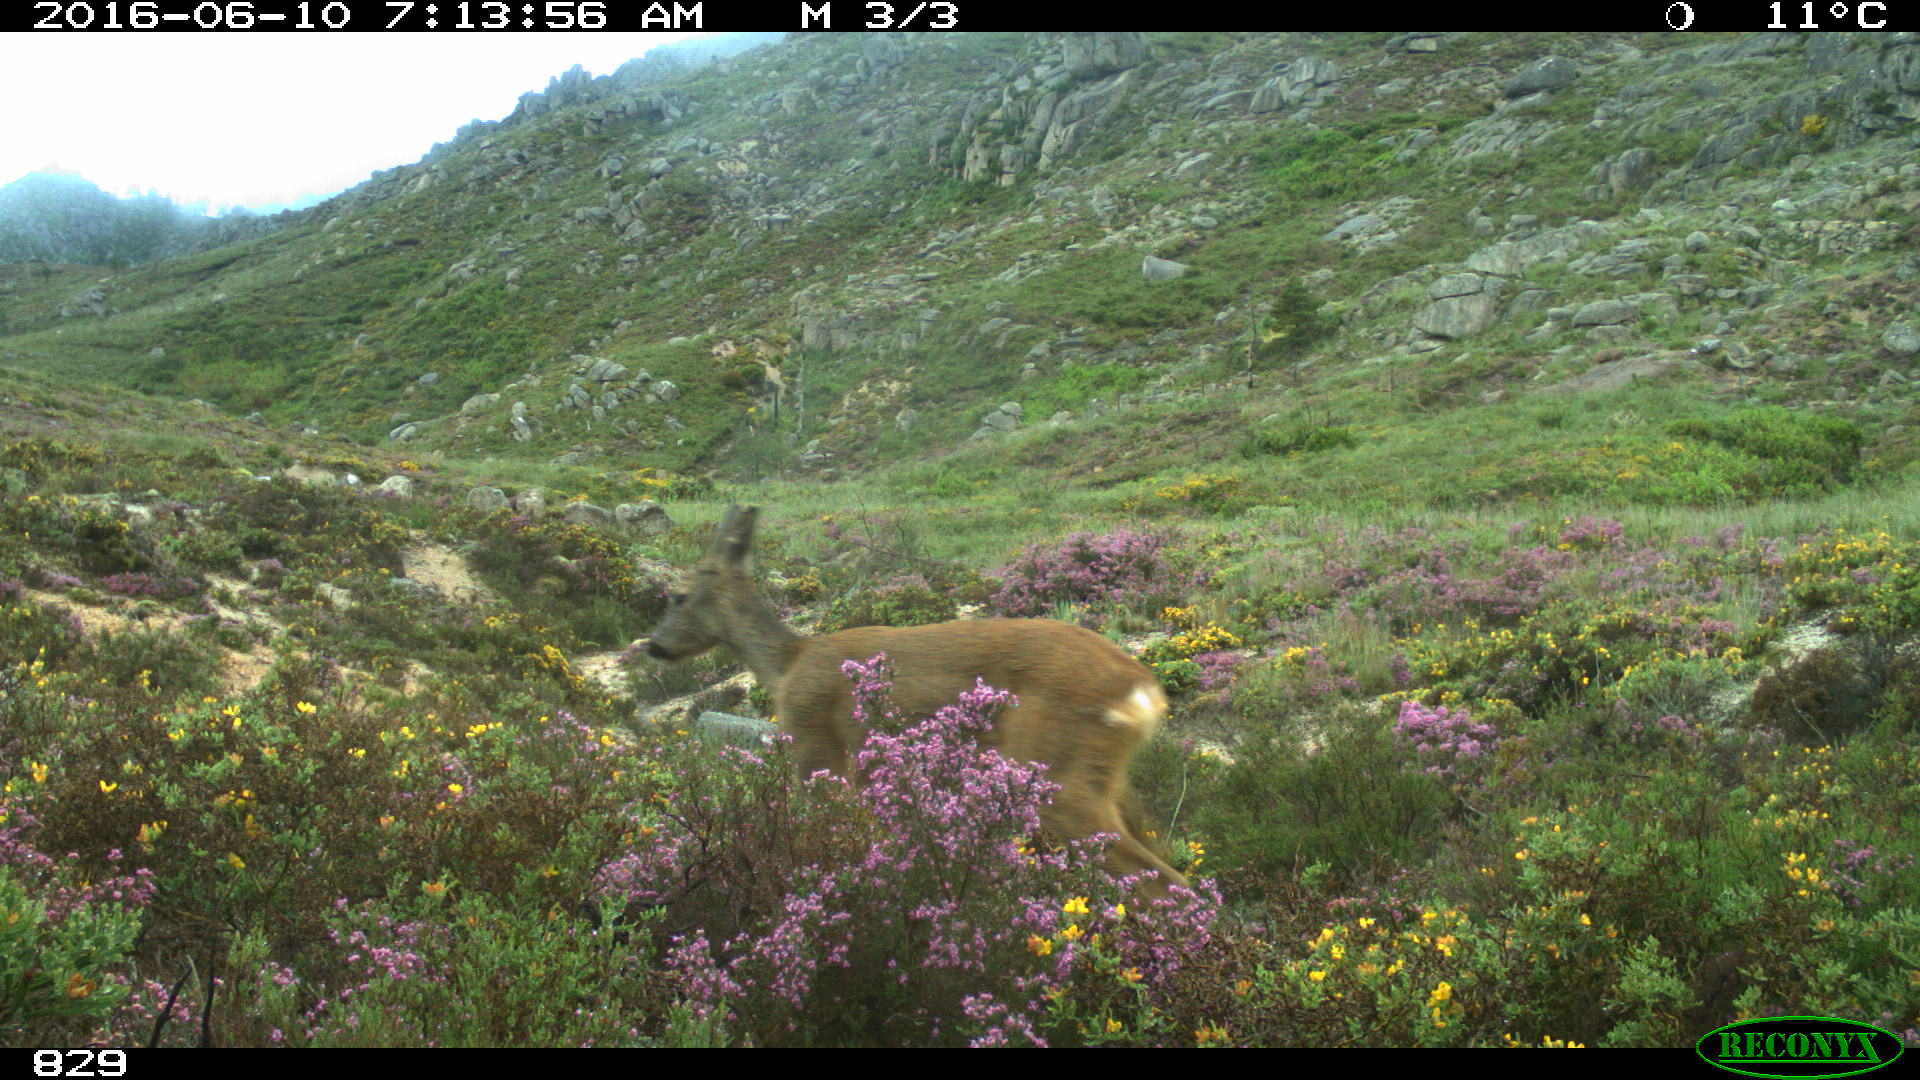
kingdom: Animalia
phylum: Chordata
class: Mammalia
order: Artiodactyla
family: Cervidae
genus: Capreolus
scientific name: Capreolus capreolus
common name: Western roe deer
